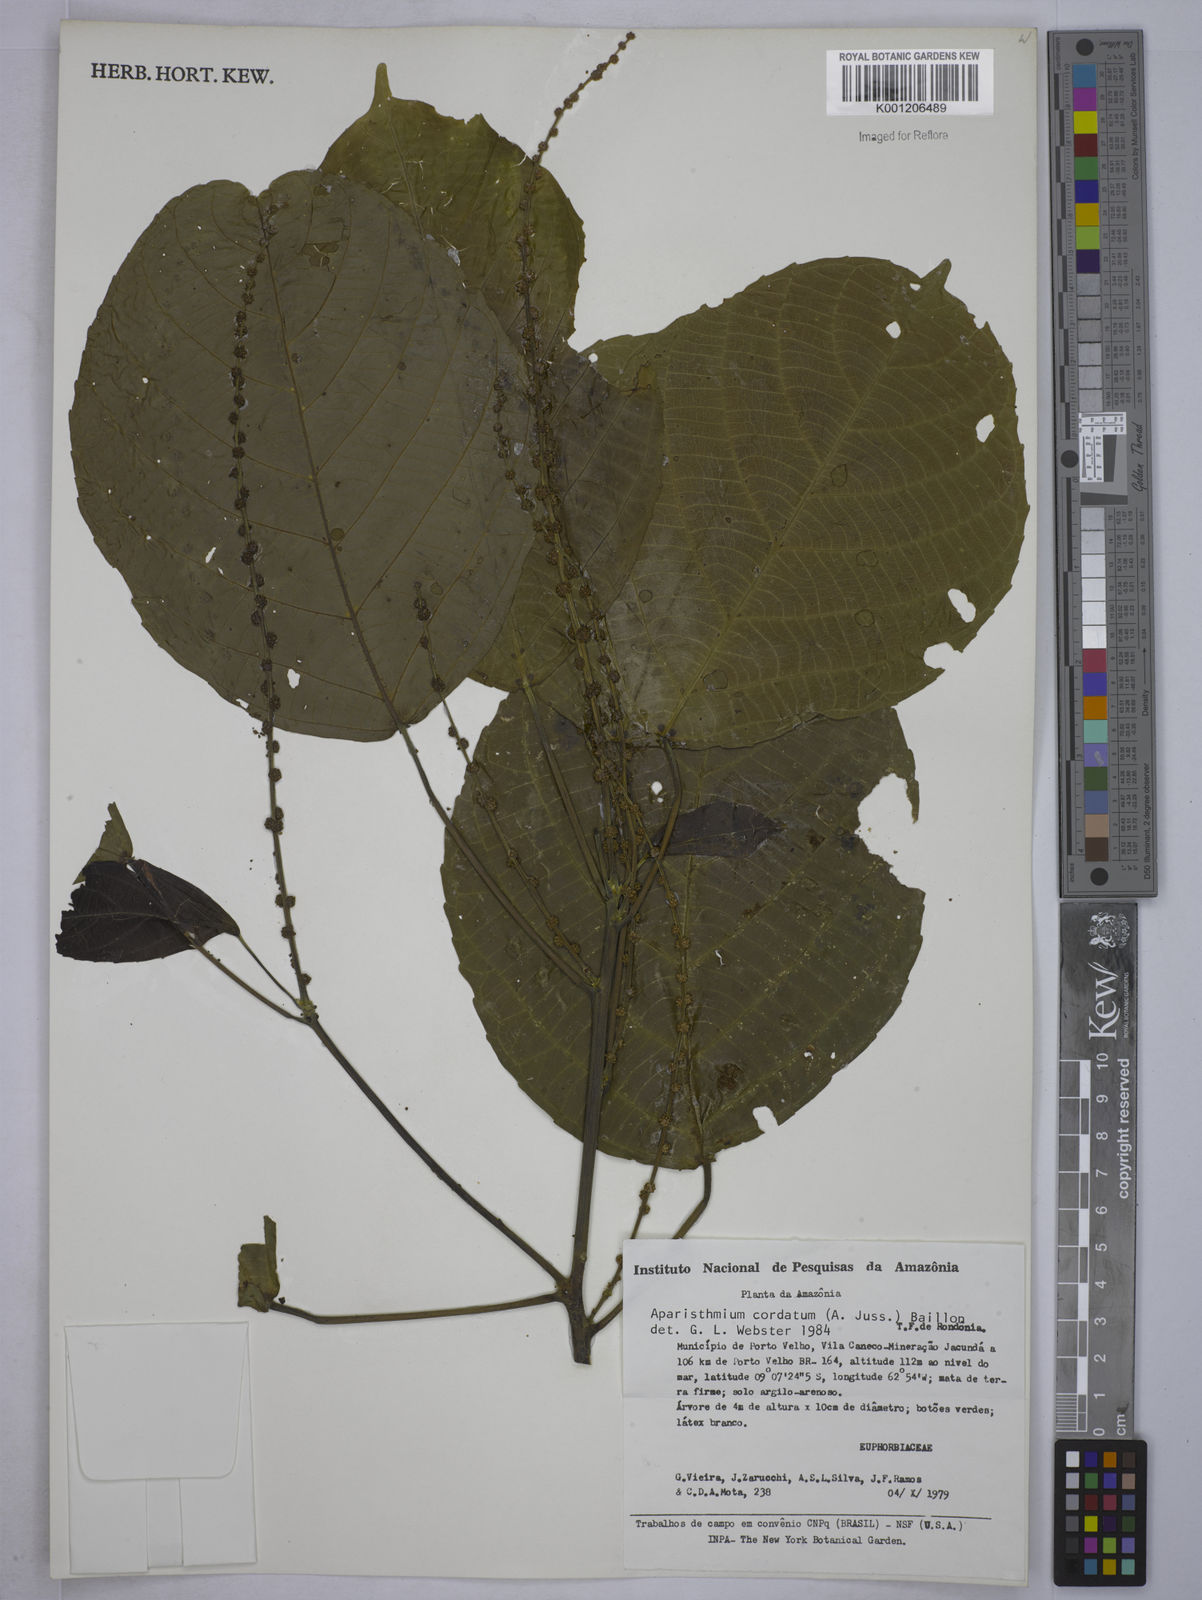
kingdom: Plantae
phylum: Tracheophyta
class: Magnoliopsida
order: Malpighiales
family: Euphorbiaceae
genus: Aparisthmium
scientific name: Aparisthmium cordatum
